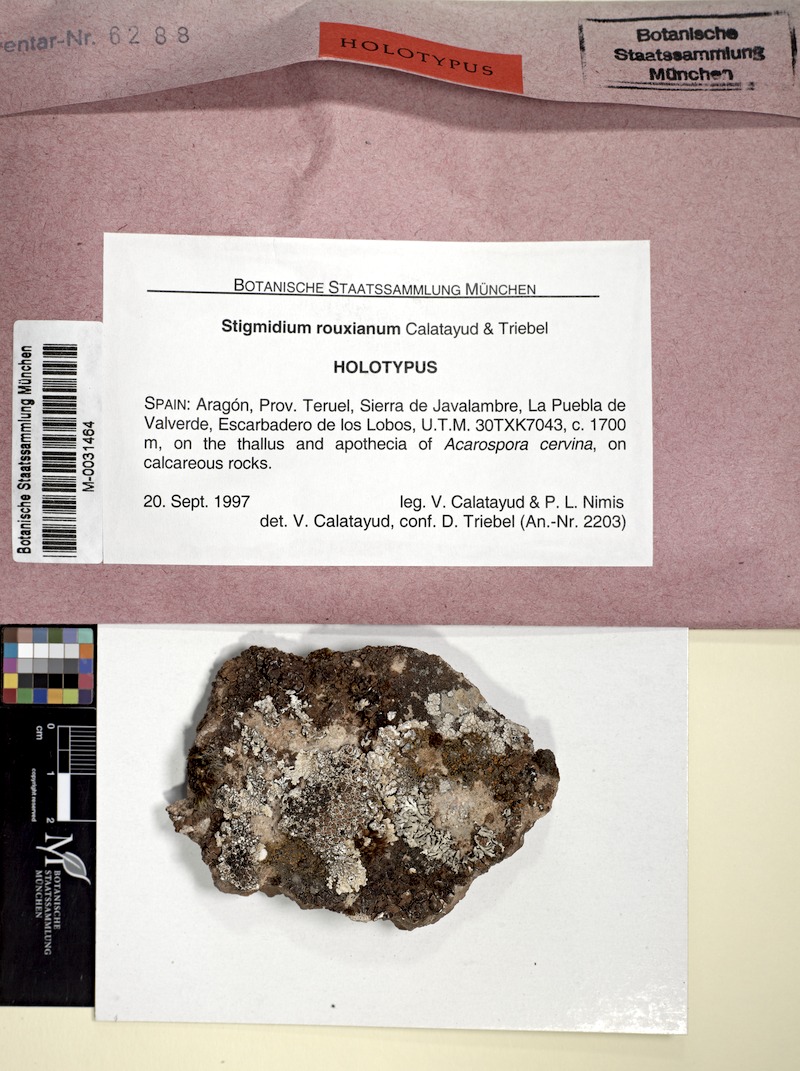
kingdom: Fungi
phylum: Ascomycota
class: Dothideomycetes
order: Mycosphaerellales
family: Mycosphaerellaceae
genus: Stigmidium
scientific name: Stigmidium rouxianum
